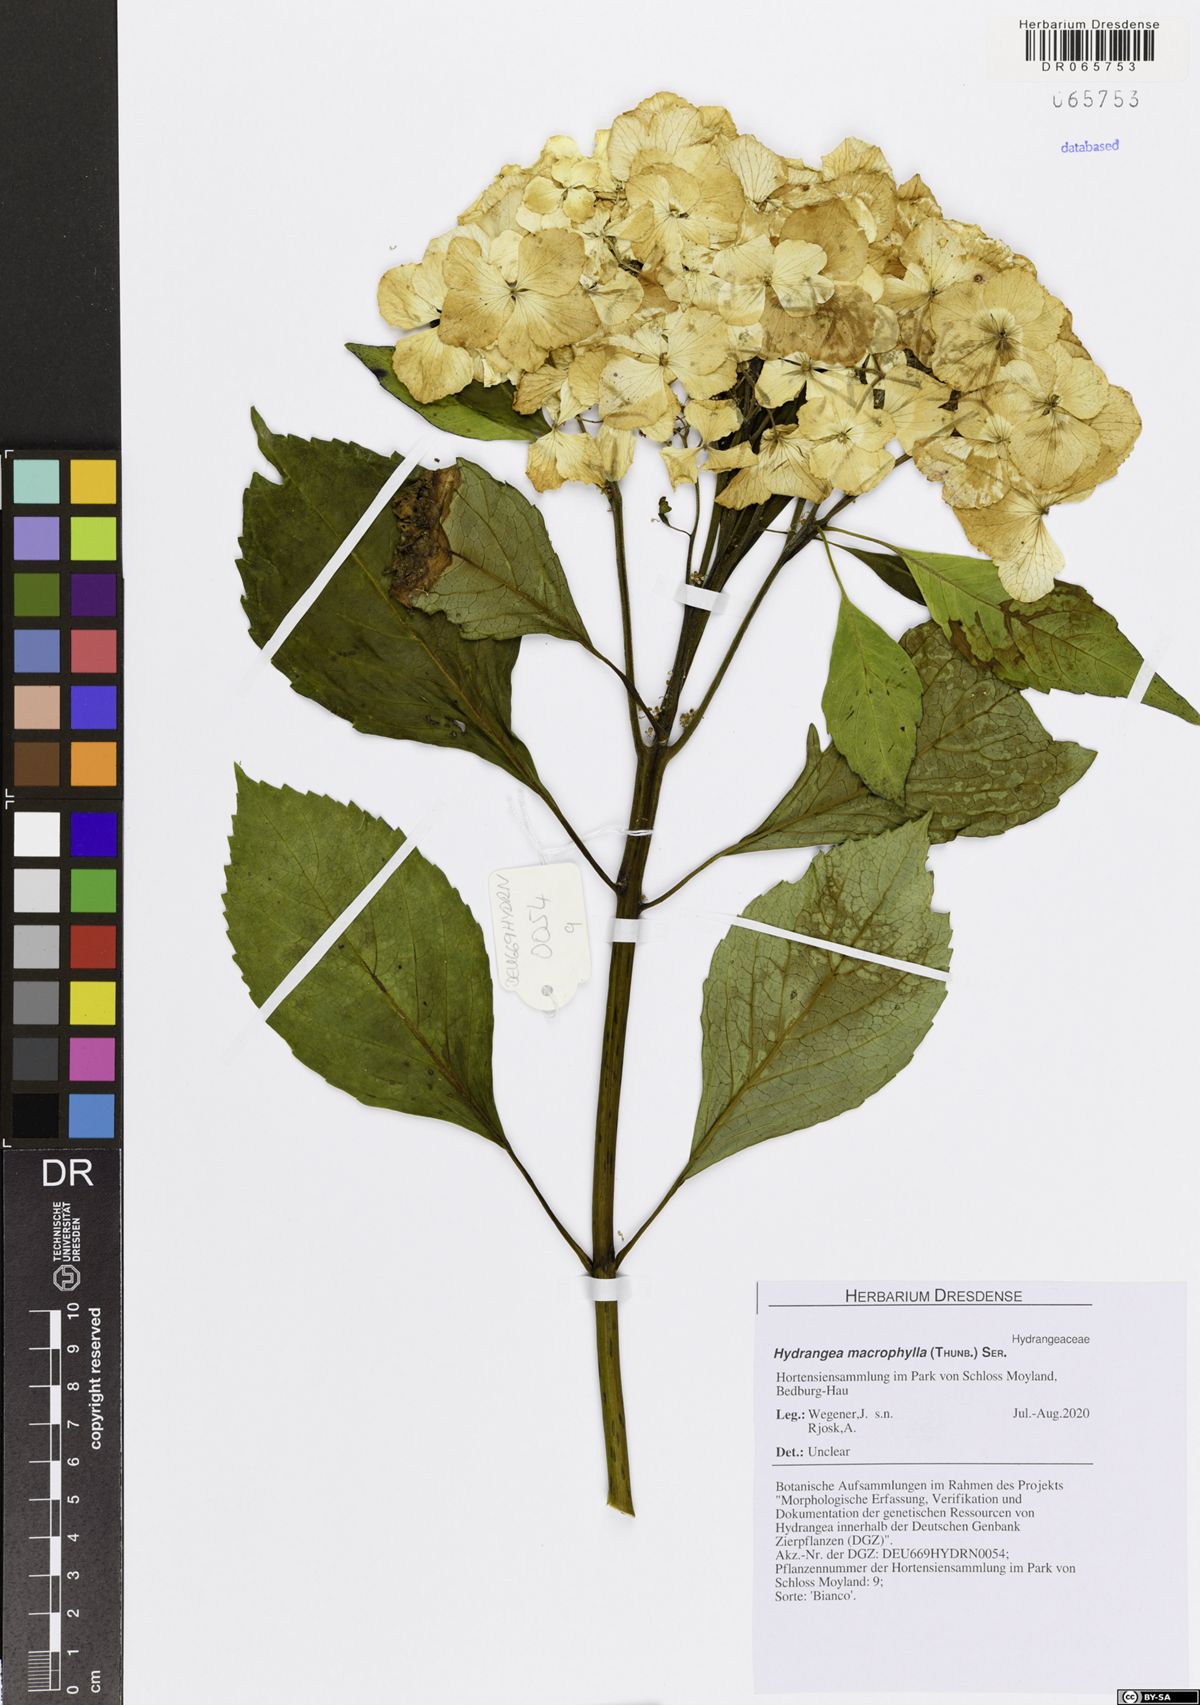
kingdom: Plantae
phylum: Tracheophyta
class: Magnoliopsida
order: Cornales
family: Hydrangeaceae
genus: Hydrangea
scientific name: Hydrangea macrophylla
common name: Hydrangea
